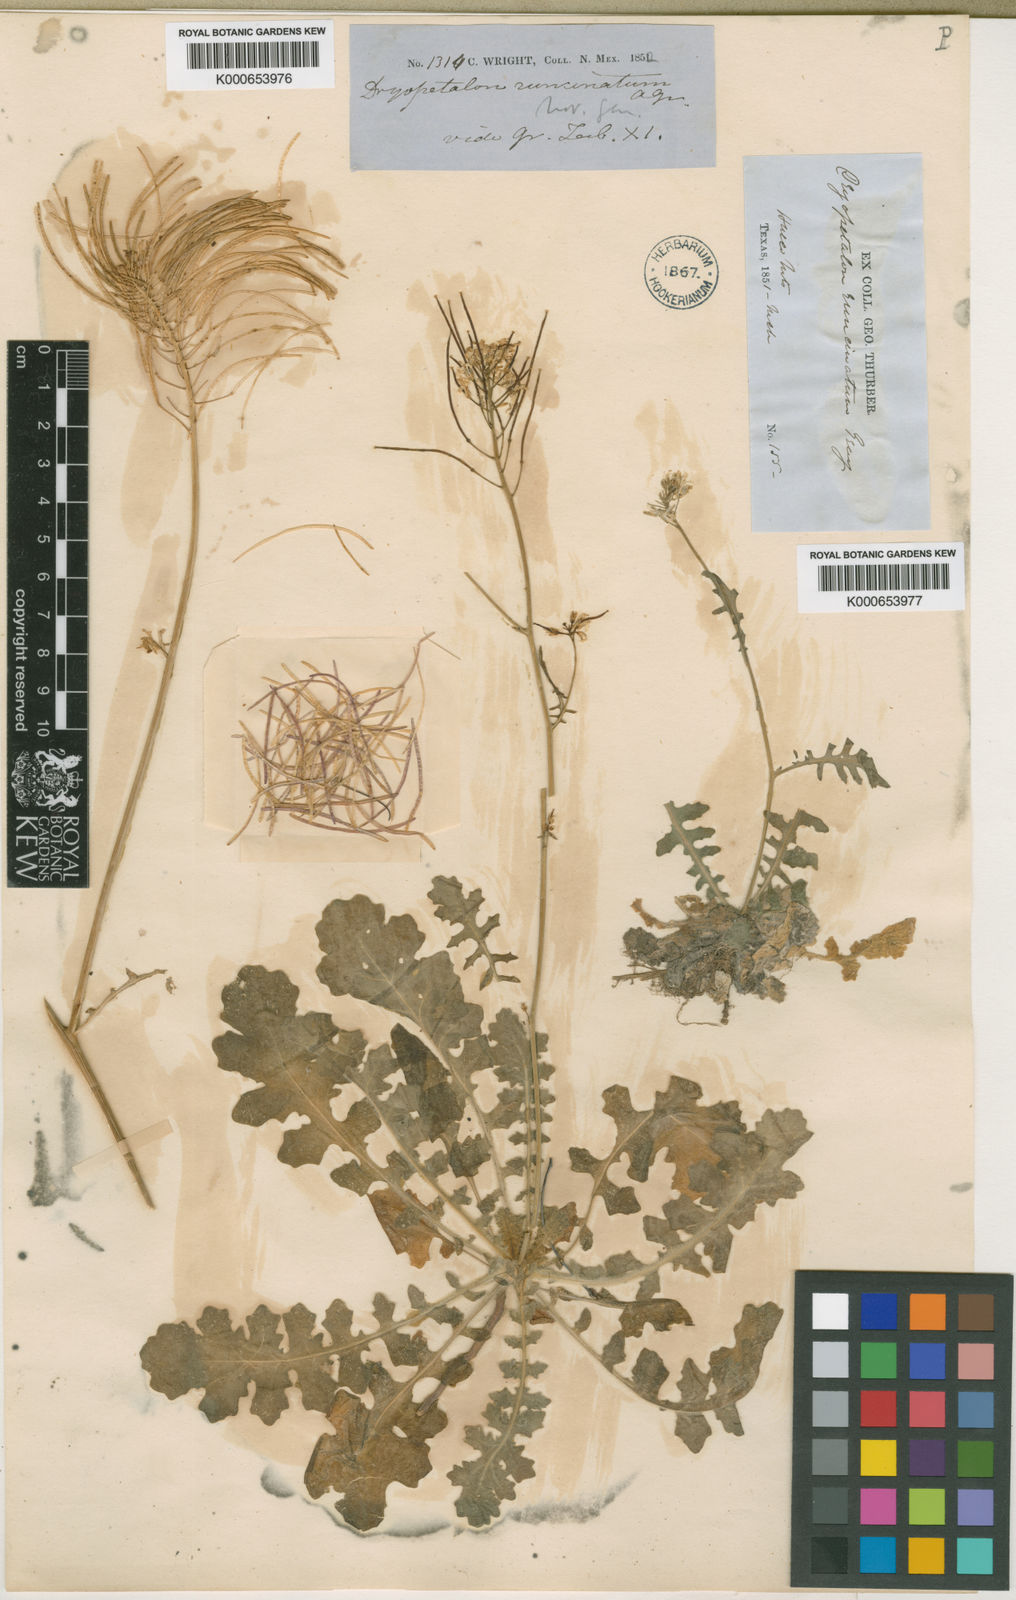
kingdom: Plantae
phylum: Tracheophyta
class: Magnoliopsida
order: Brassicales
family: Brassicaceae
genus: Dryopetalon
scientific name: Dryopetalon runcinatum
